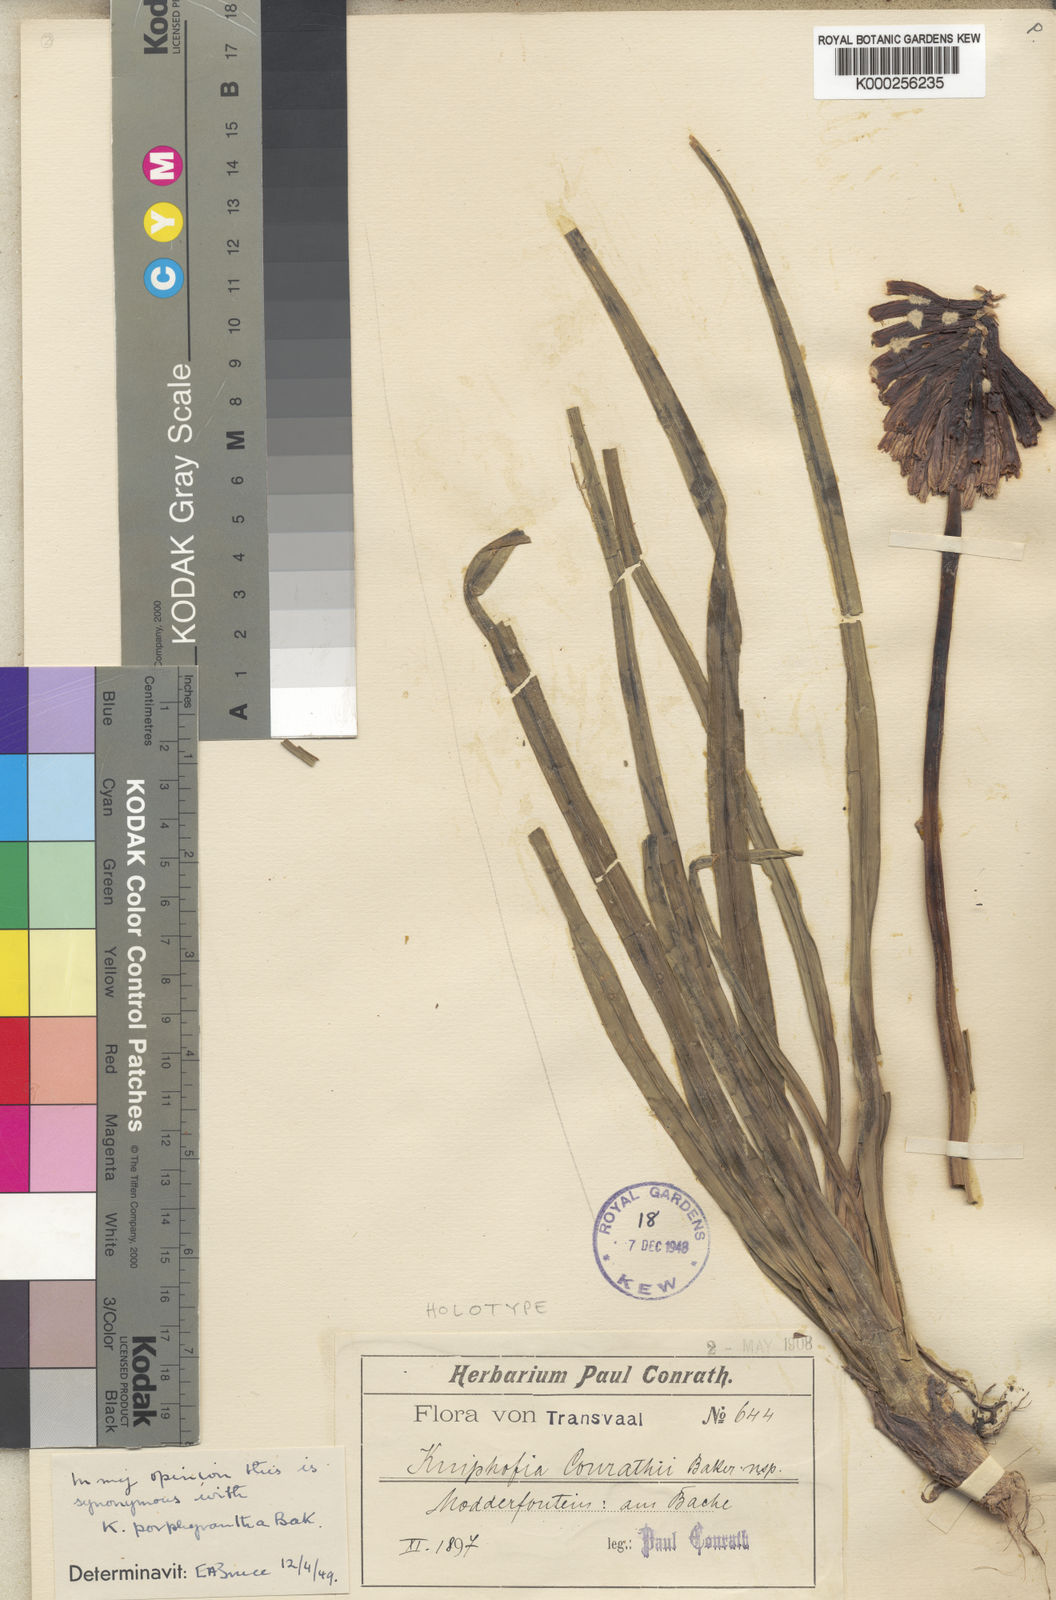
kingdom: Plantae
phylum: Tracheophyta
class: Liliopsida
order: Asparagales
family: Asphodelaceae
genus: Kniphofia
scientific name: Kniphofia porphyrantha
